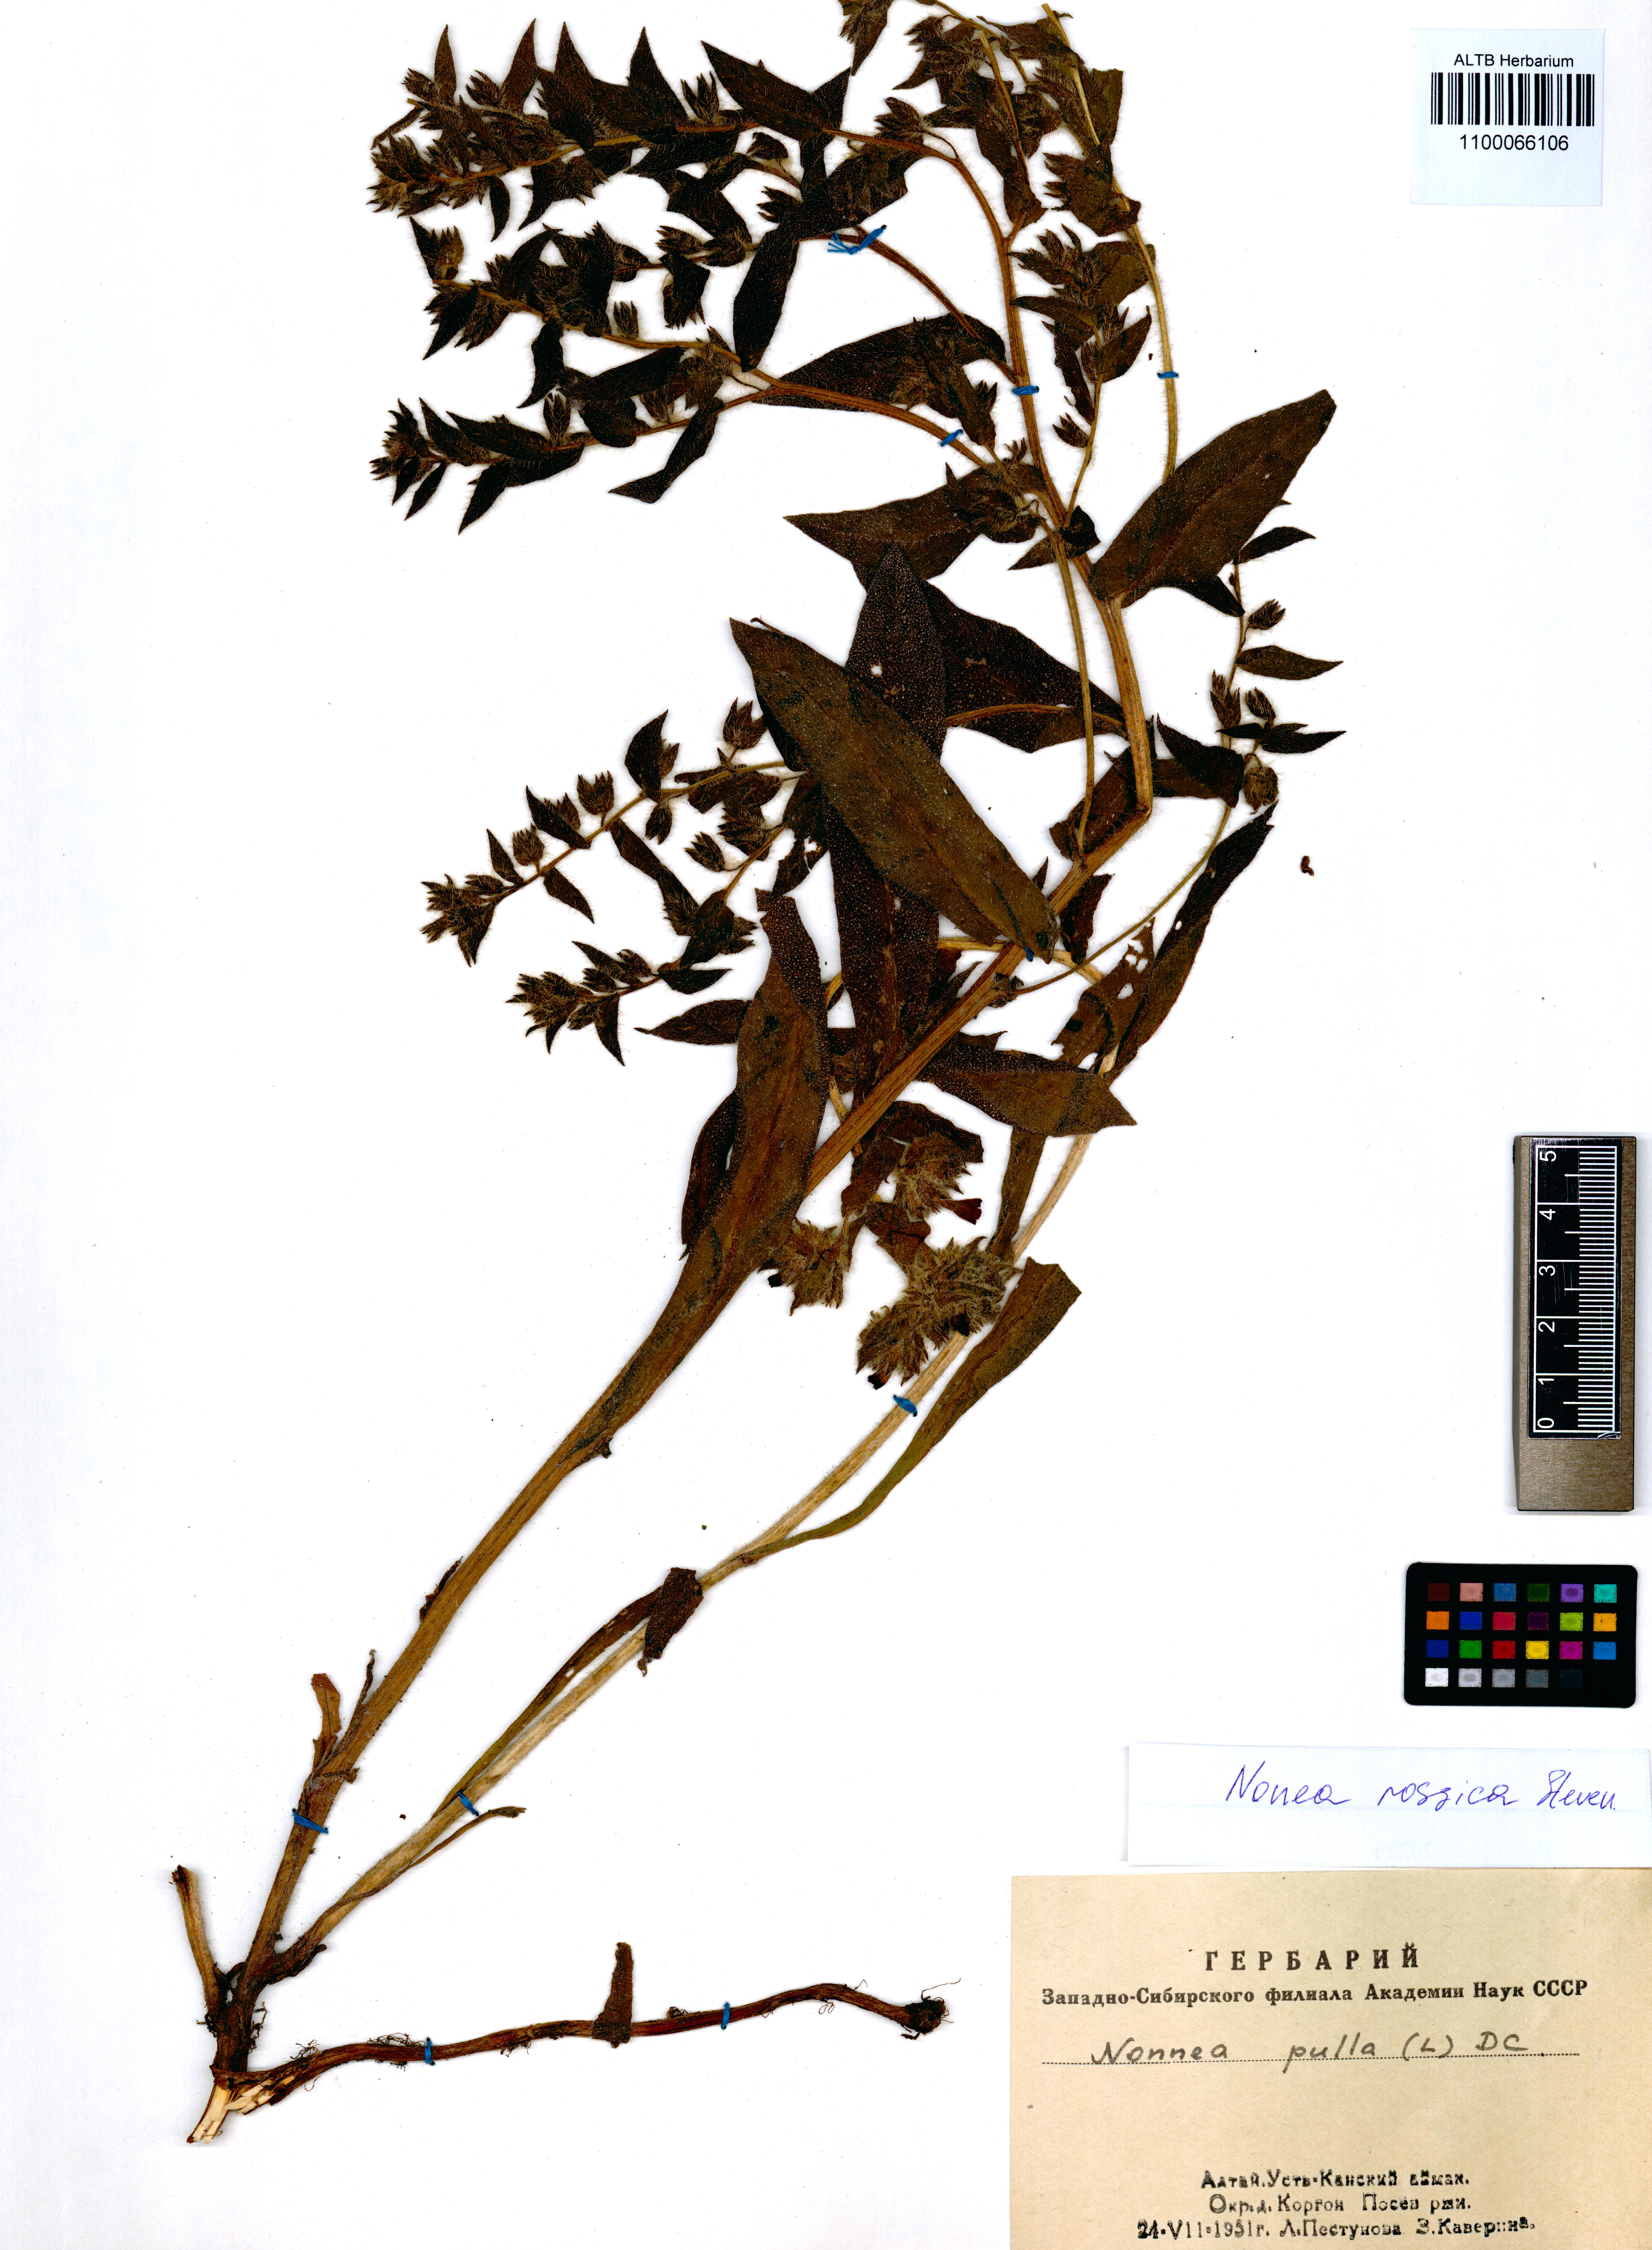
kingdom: Plantae
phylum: Tracheophyta
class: Magnoliopsida
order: Boraginales
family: Boraginaceae
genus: Nonea
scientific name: Nonea pulla
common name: Brown nonea
